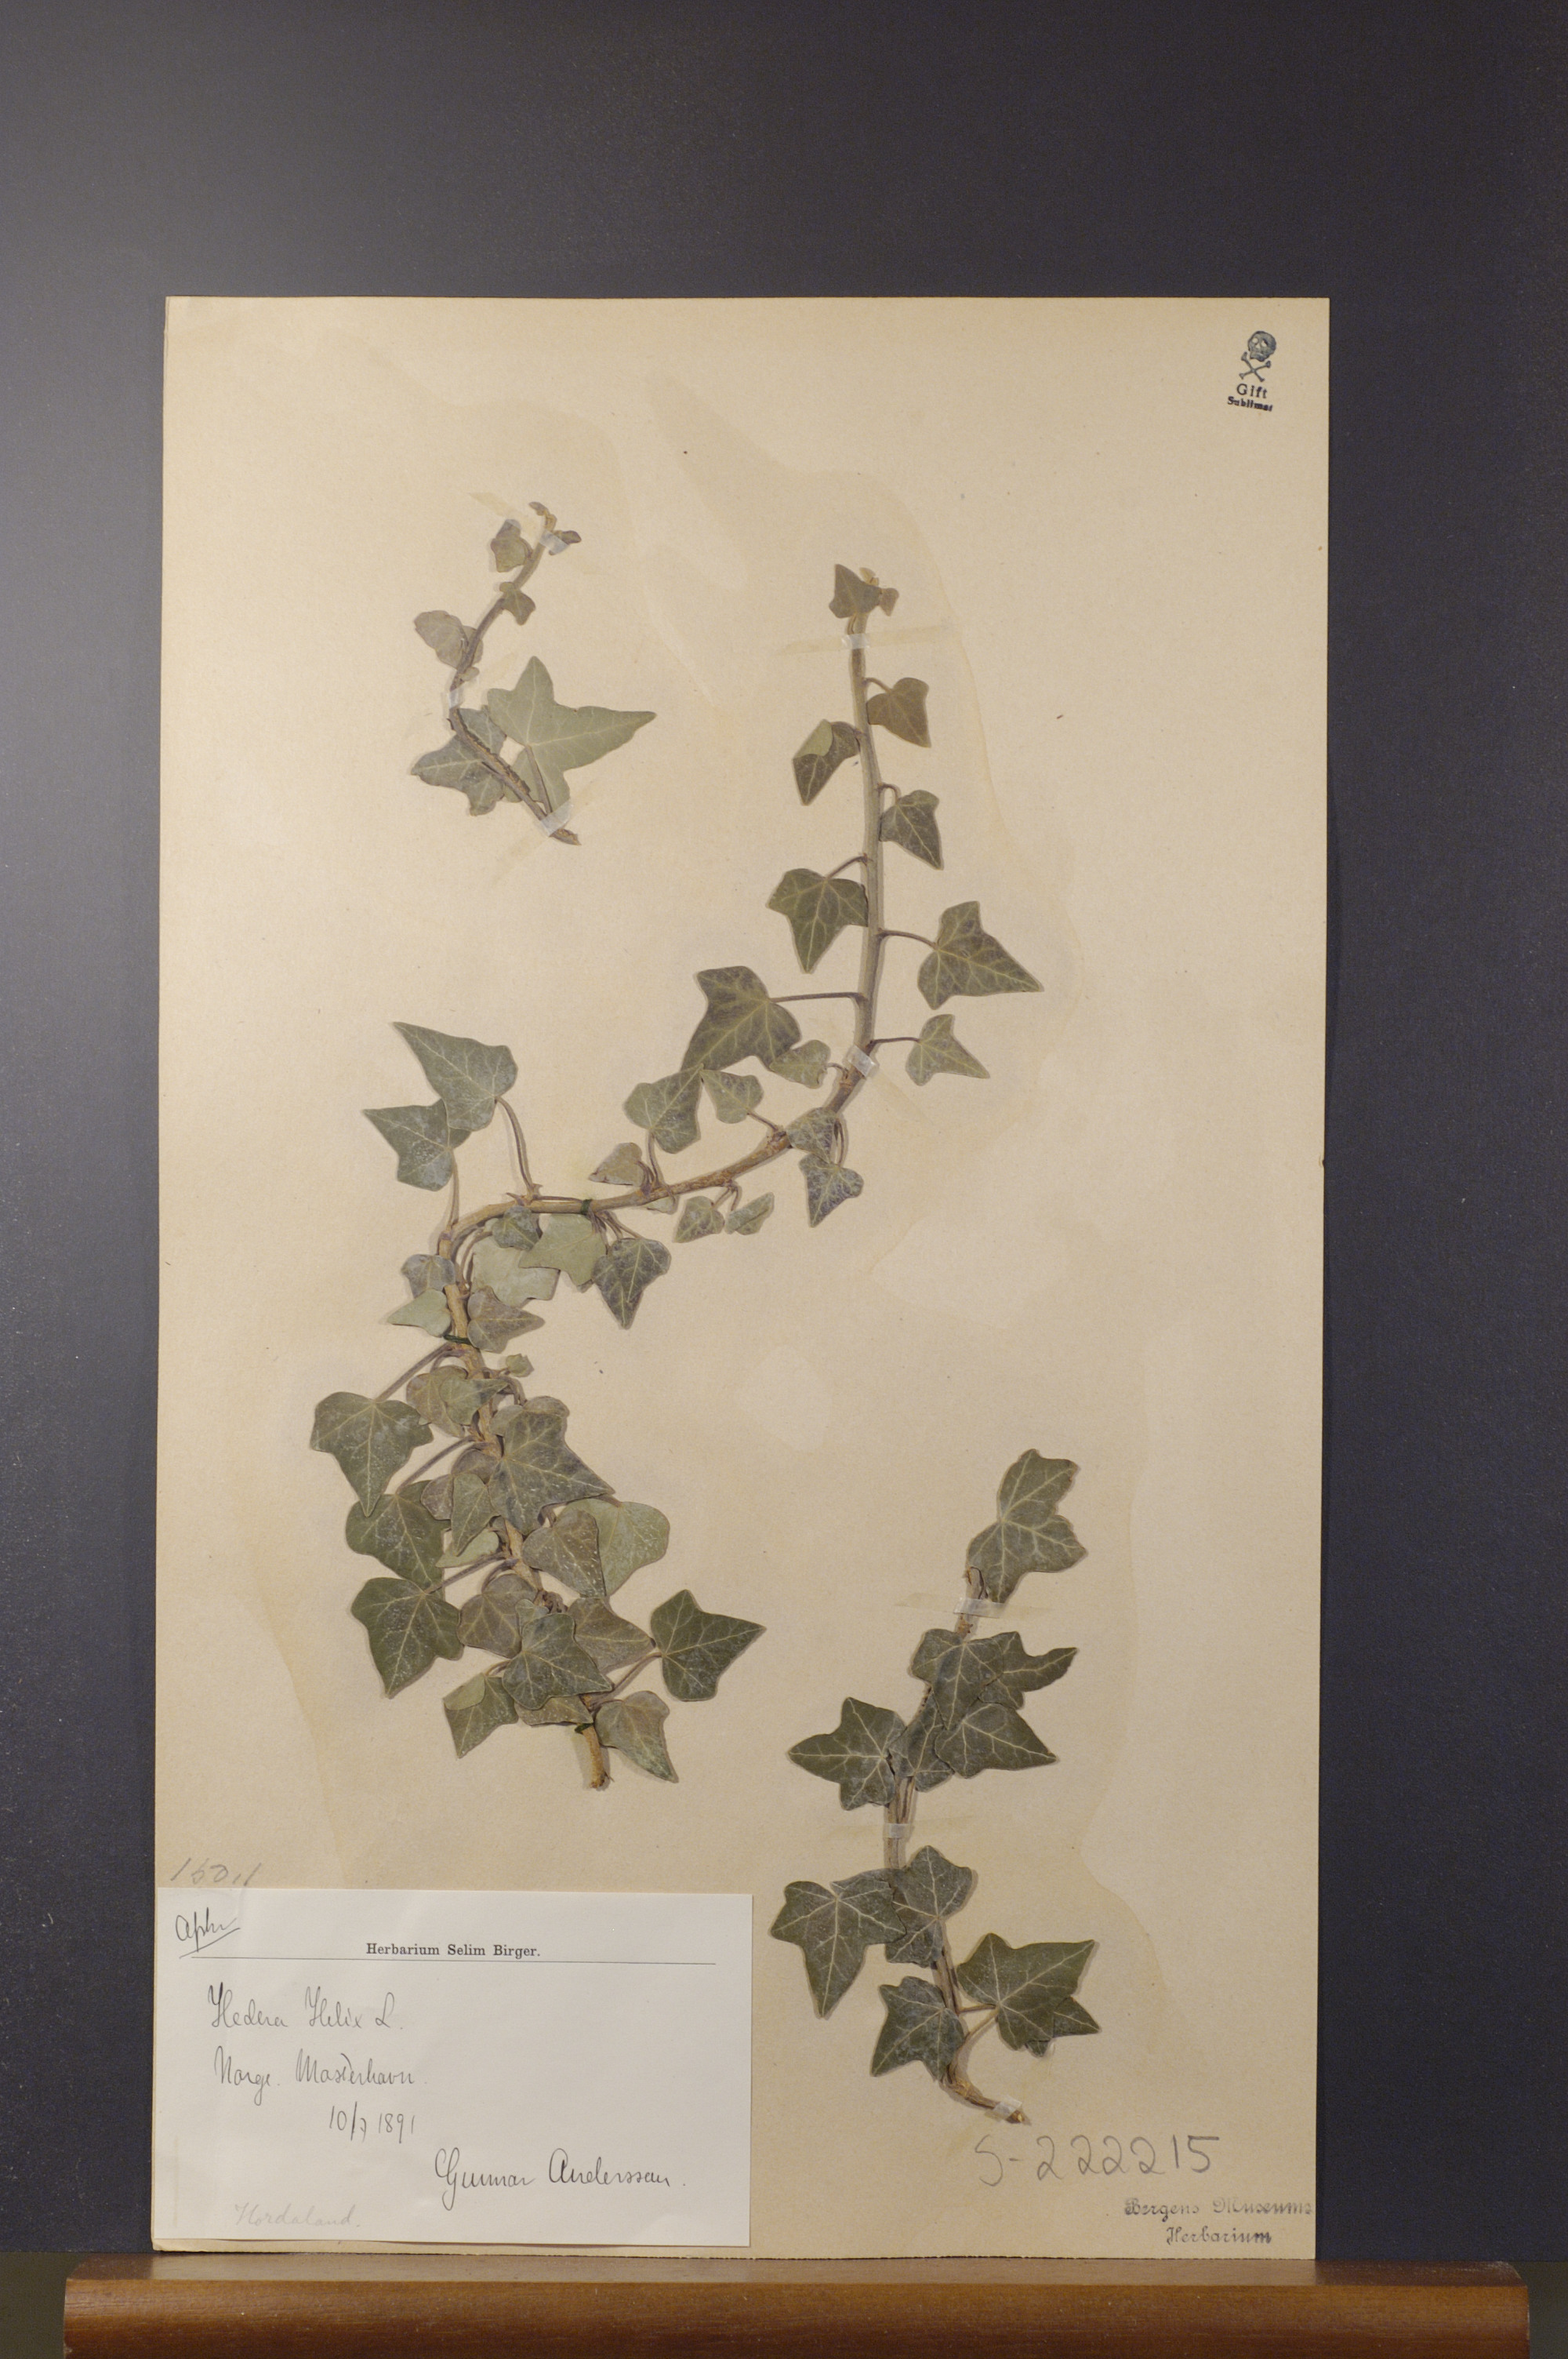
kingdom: Plantae
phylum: Tracheophyta
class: Magnoliopsida
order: Apiales
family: Araliaceae
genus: Hedera
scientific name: Hedera helix
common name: Ivy
